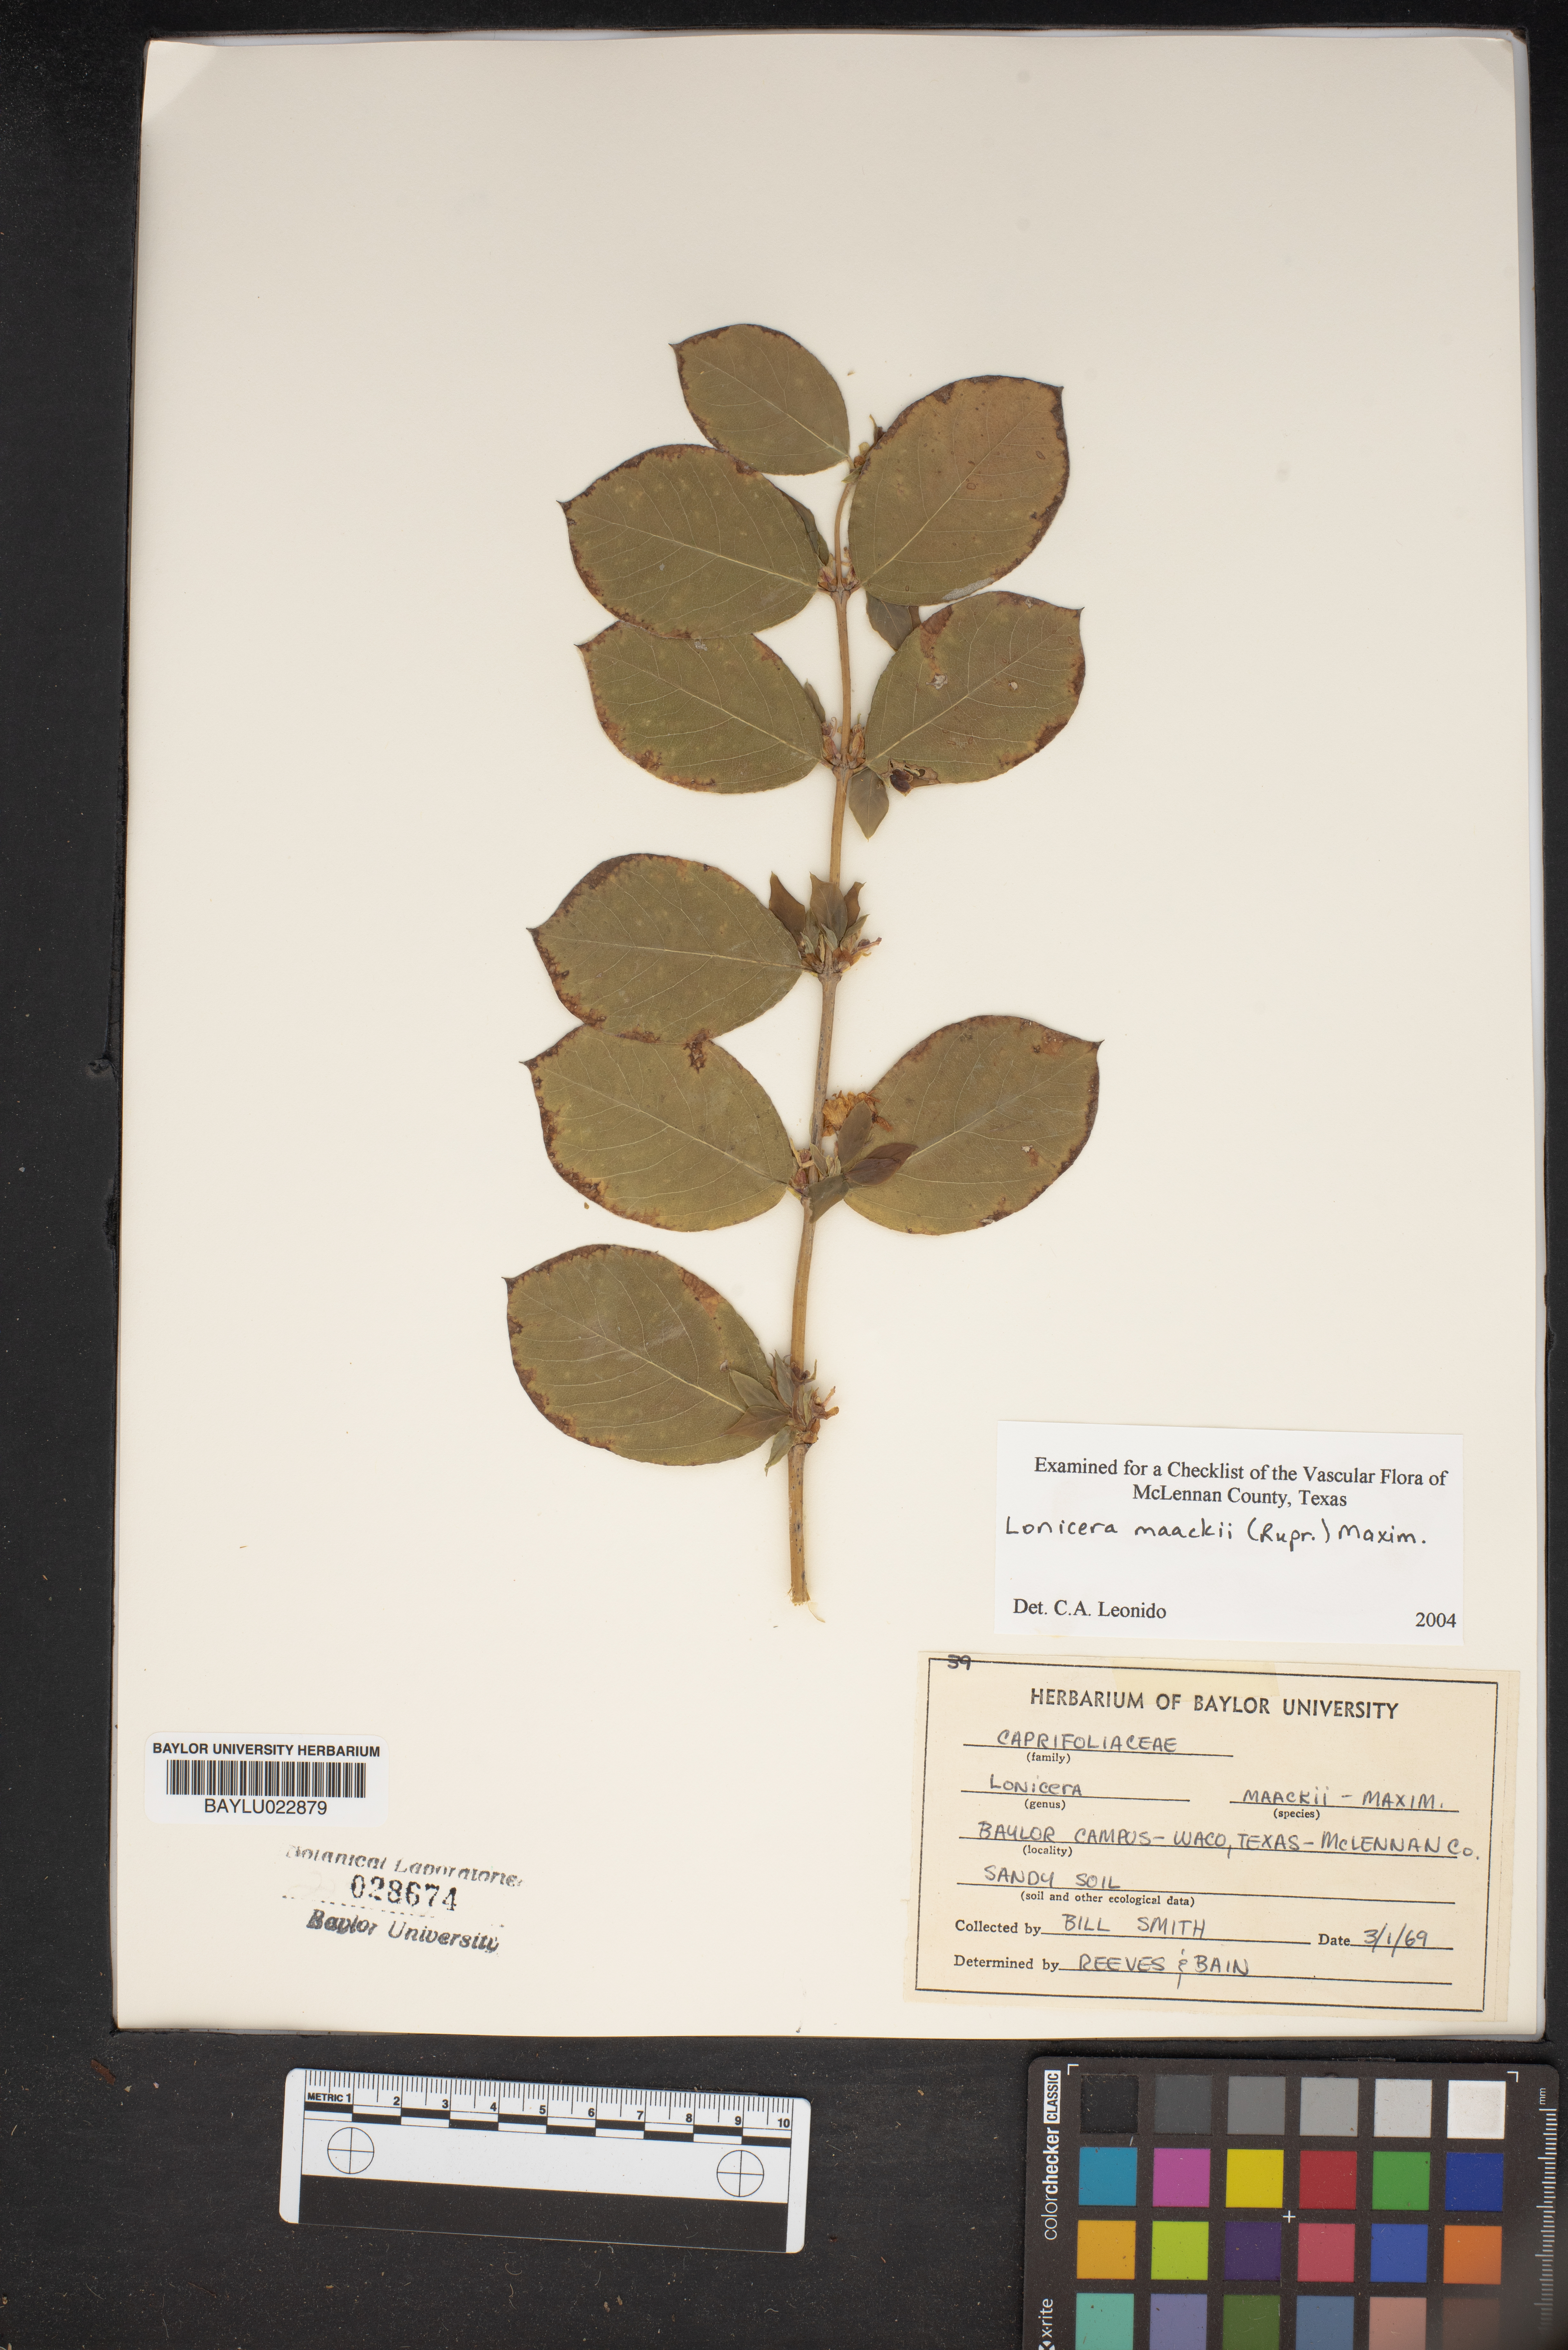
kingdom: Plantae
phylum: Tracheophyta
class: Magnoliopsida
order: Dipsacales
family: Caprifoliaceae
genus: Lonicera
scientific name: Lonicera maackii
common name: Amur honeysuckle
